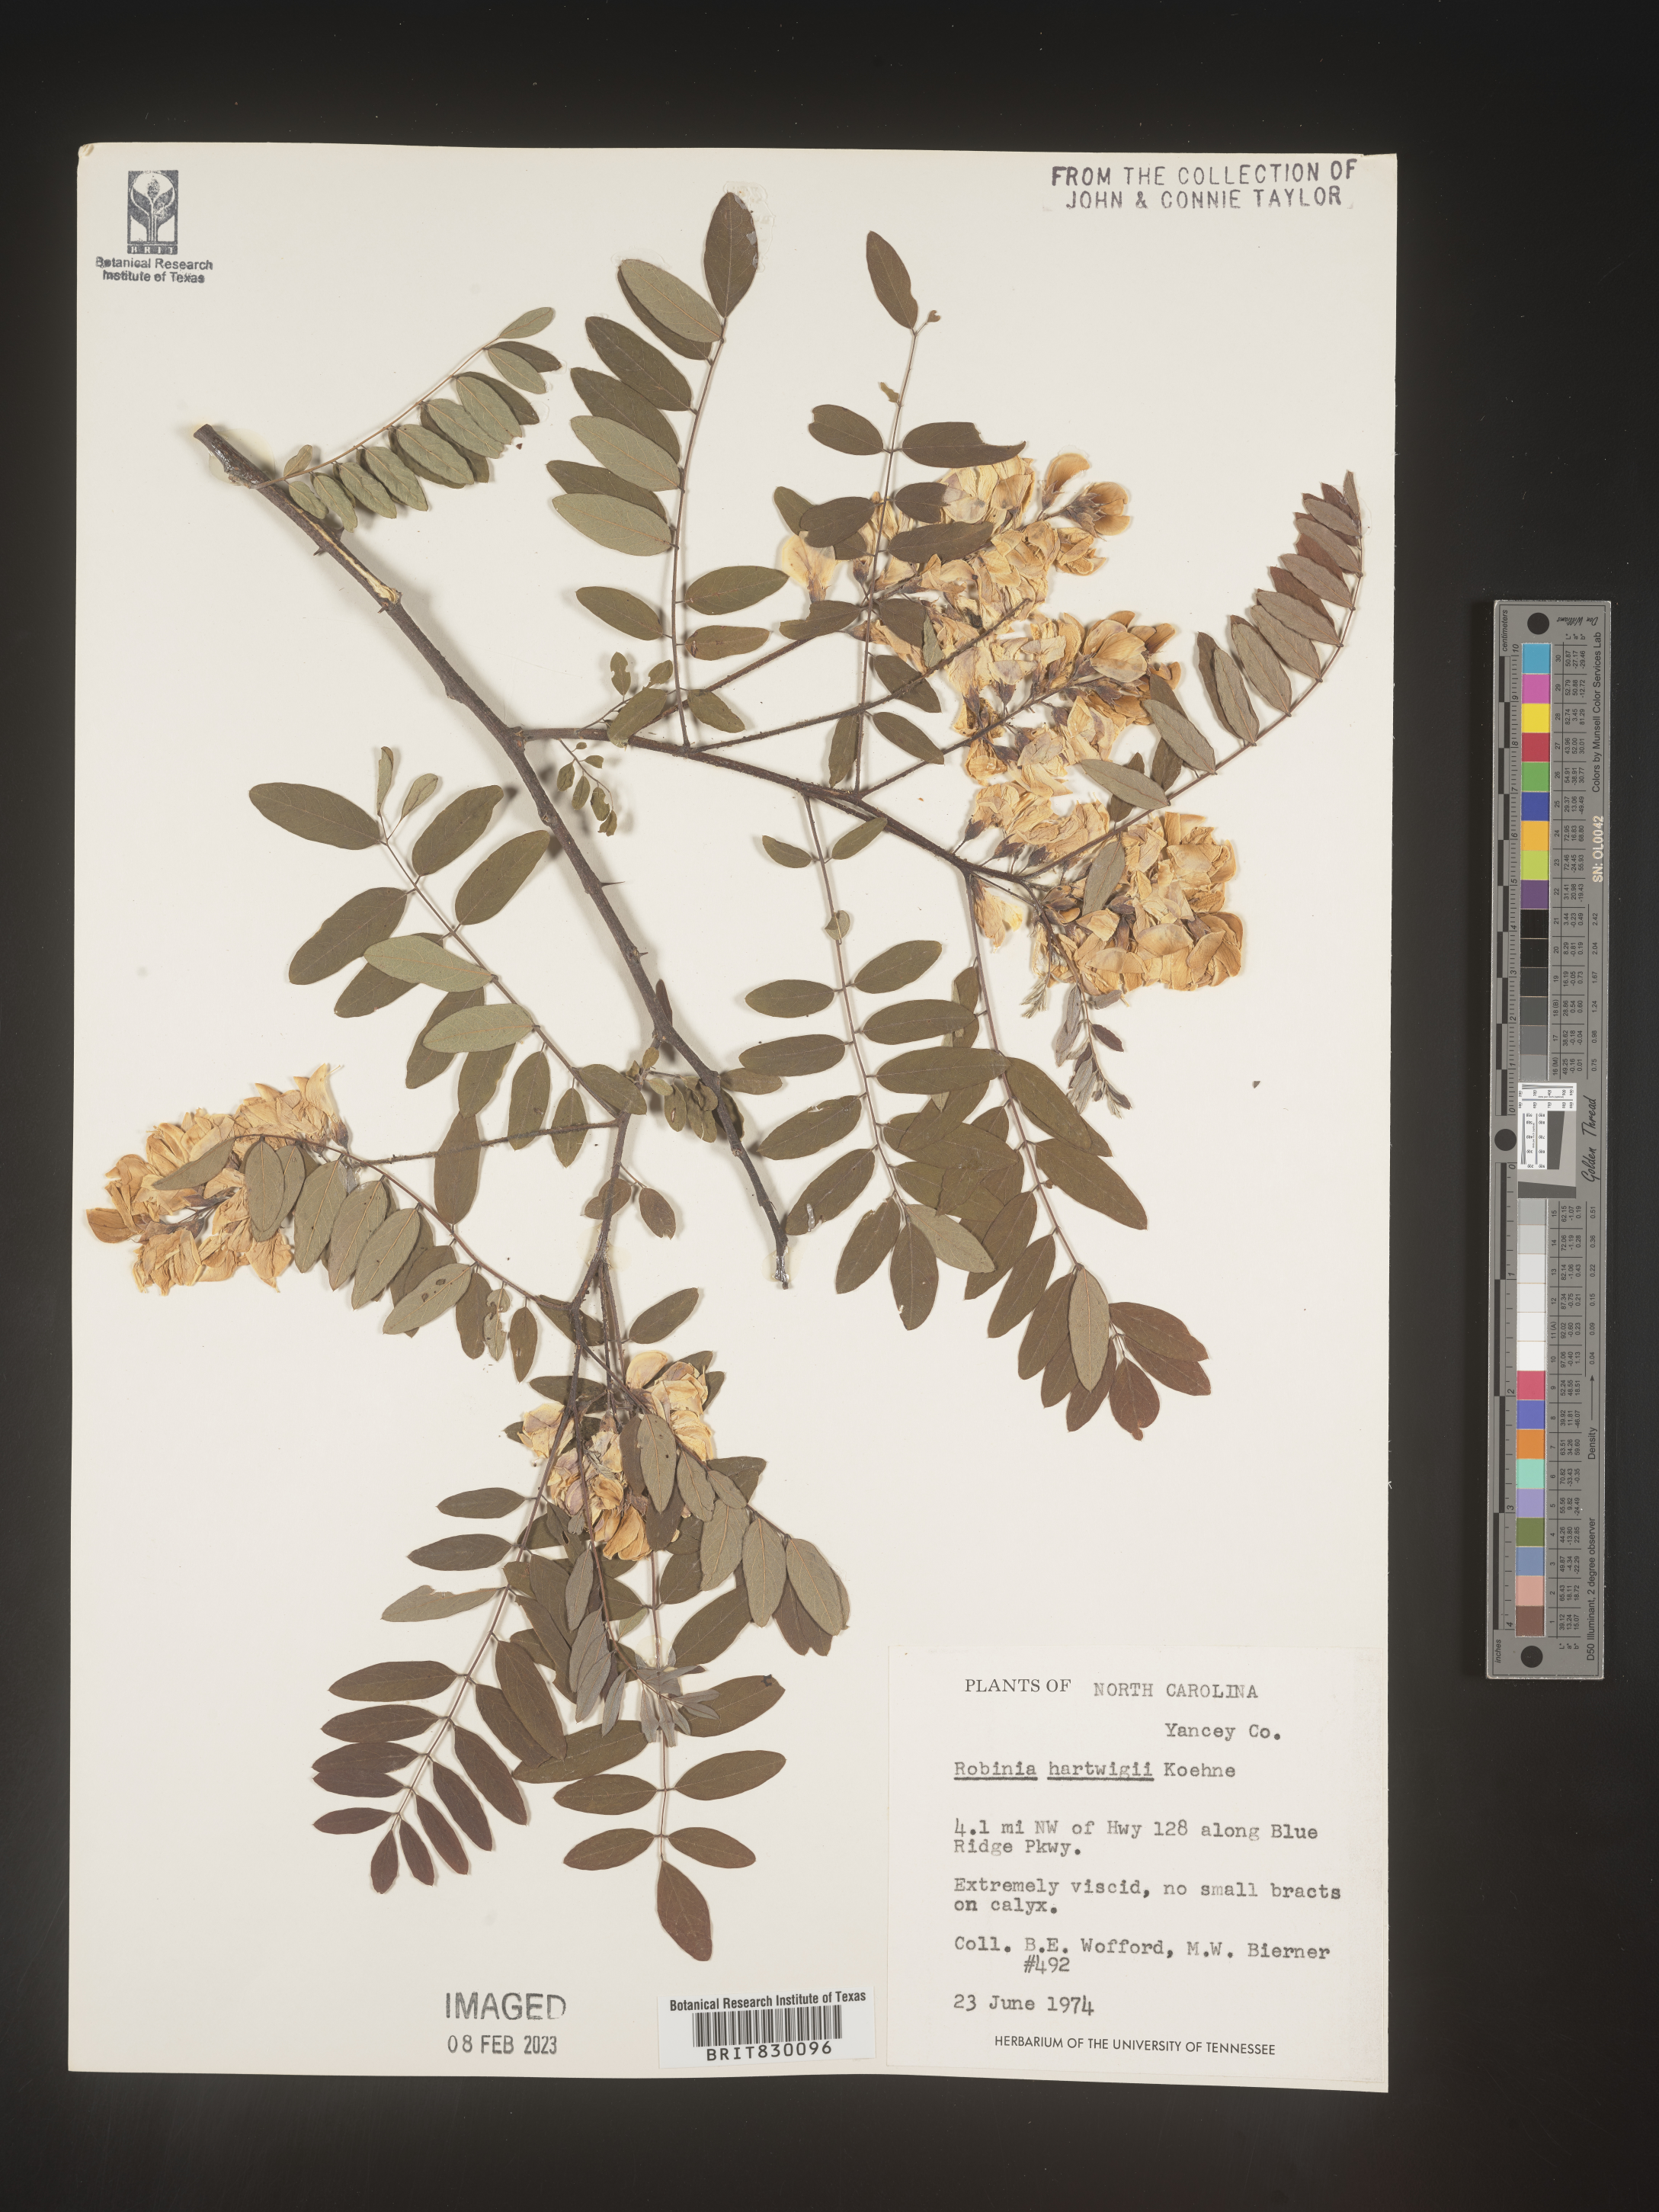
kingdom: Plantae
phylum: Tracheophyta
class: Magnoliopsida
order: Fabales
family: Fabaceae
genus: Robinia
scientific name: Robinia
